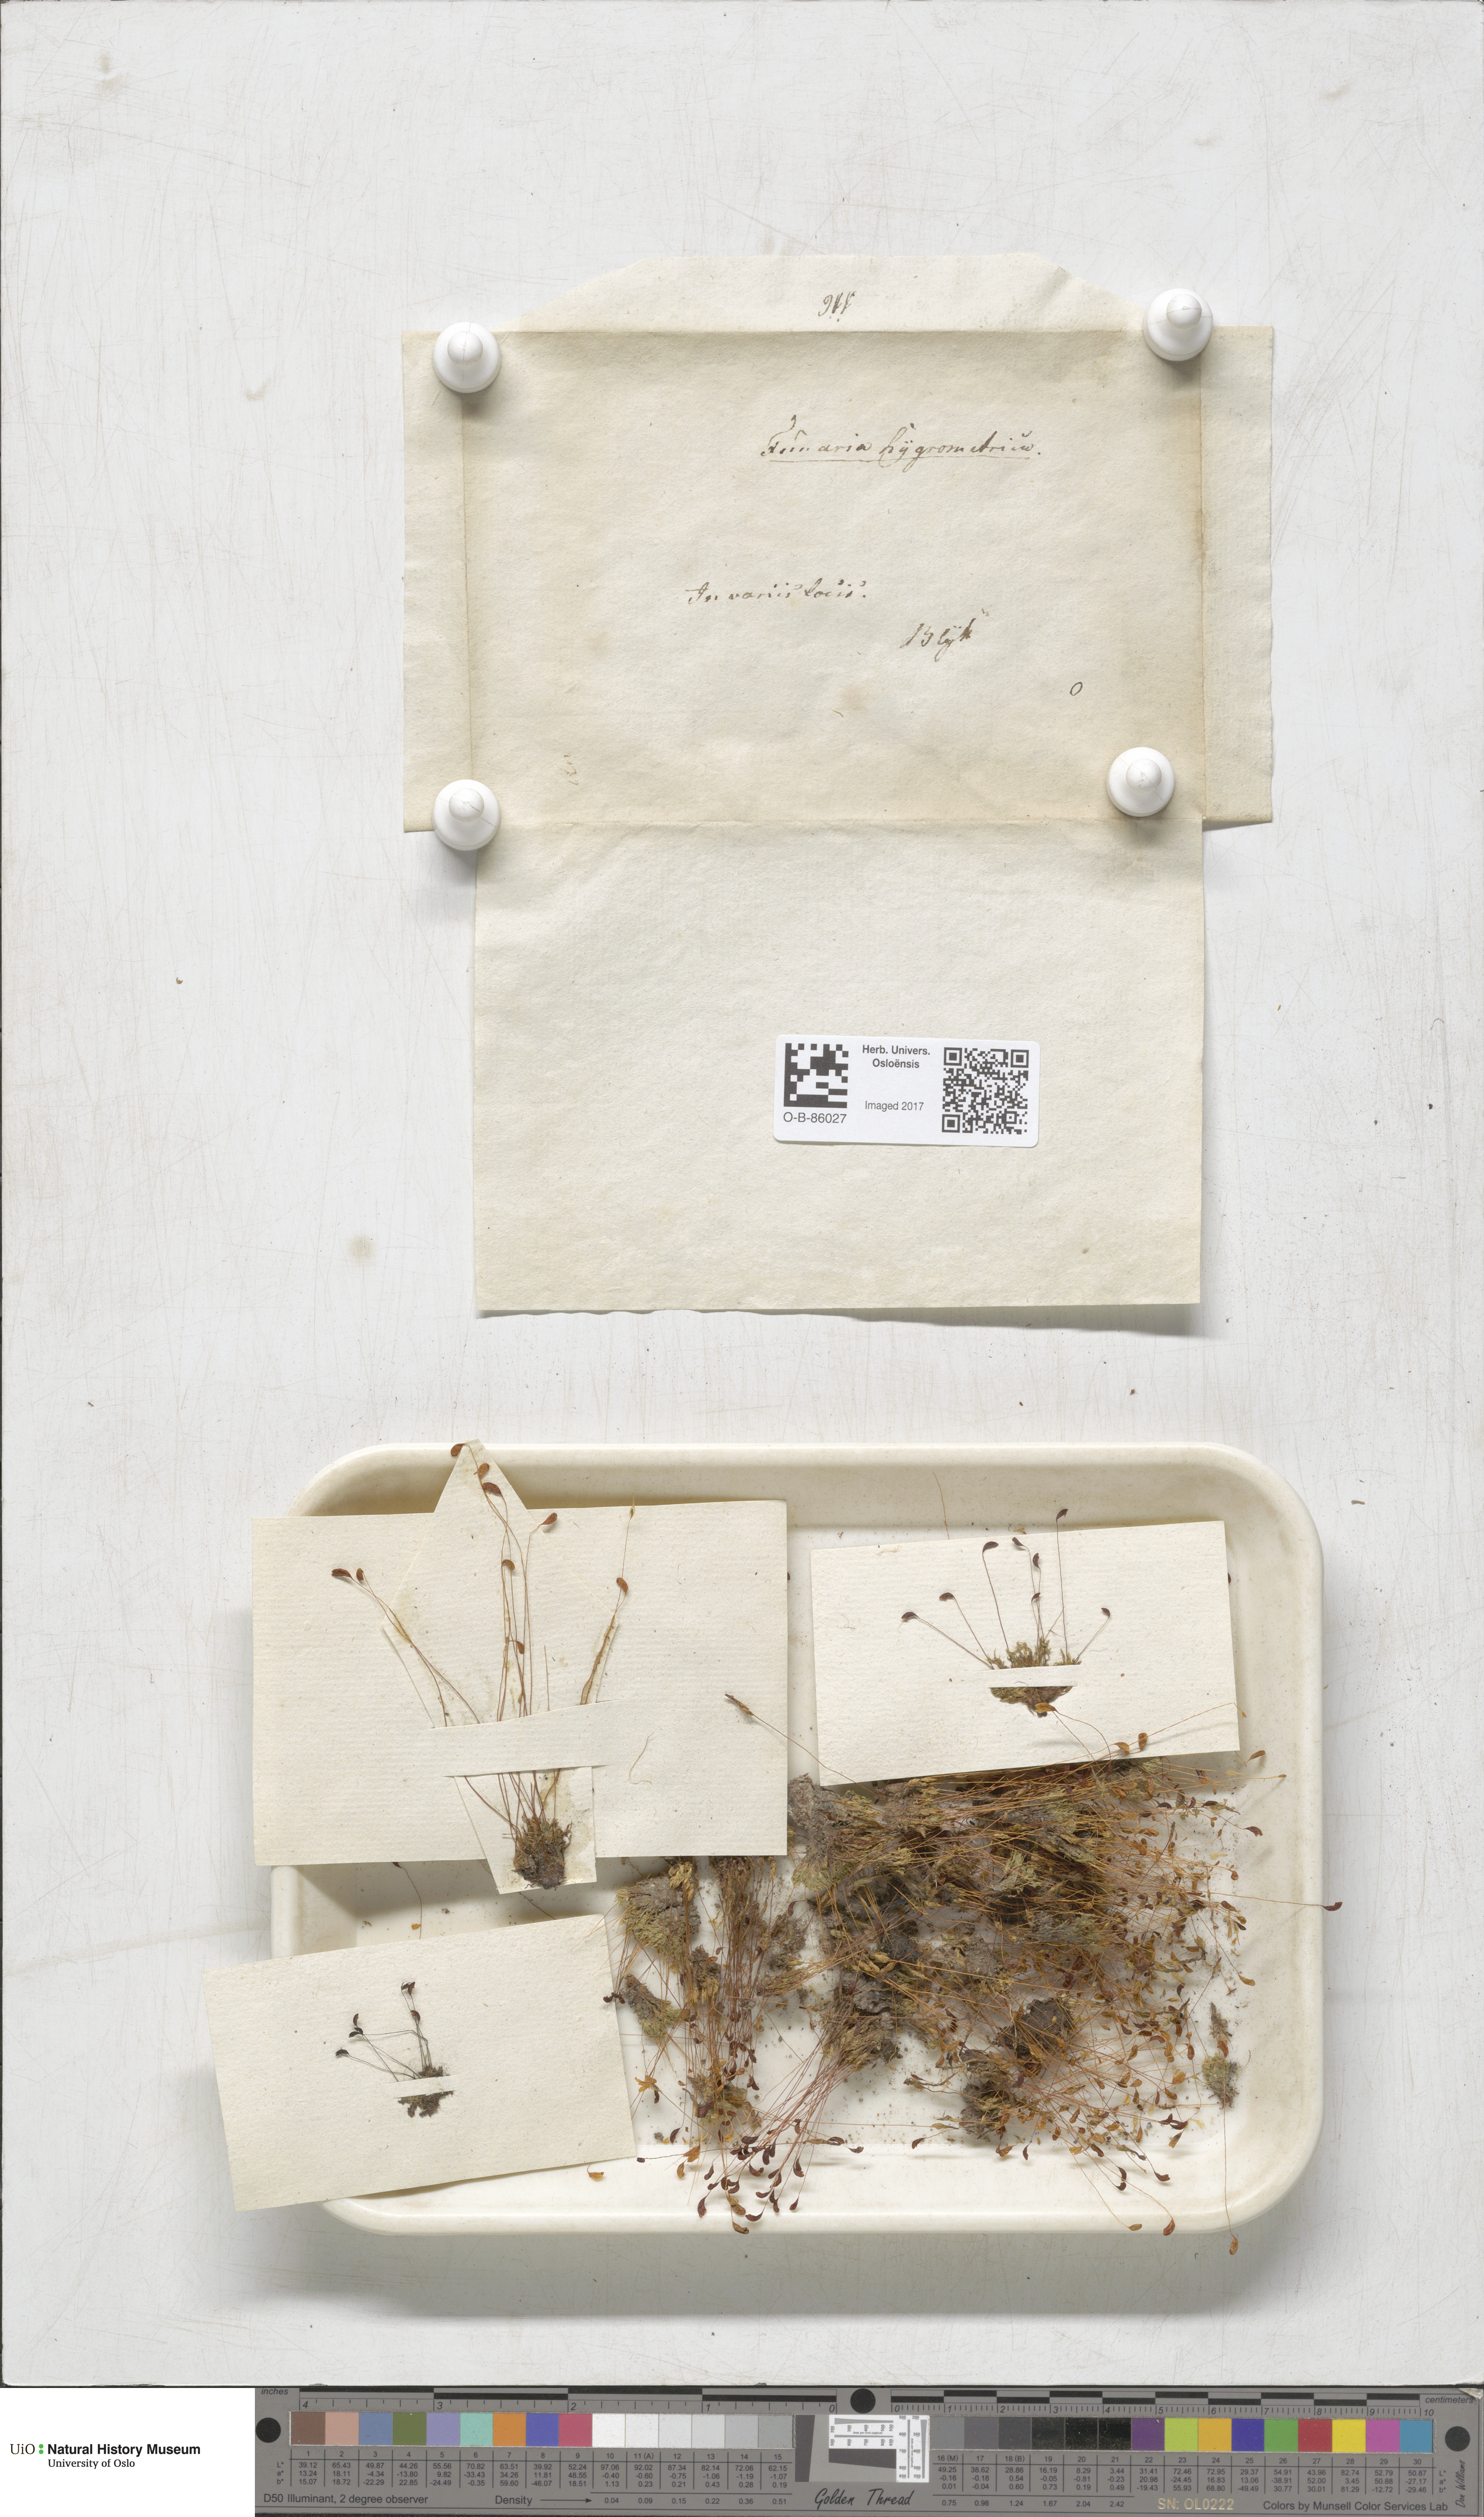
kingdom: Plantae
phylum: Bryophyta
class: Bryopsida
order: Funariales
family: Funariaceae
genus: Funaria
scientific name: Funaria hygrometrica
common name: Common cord moss
